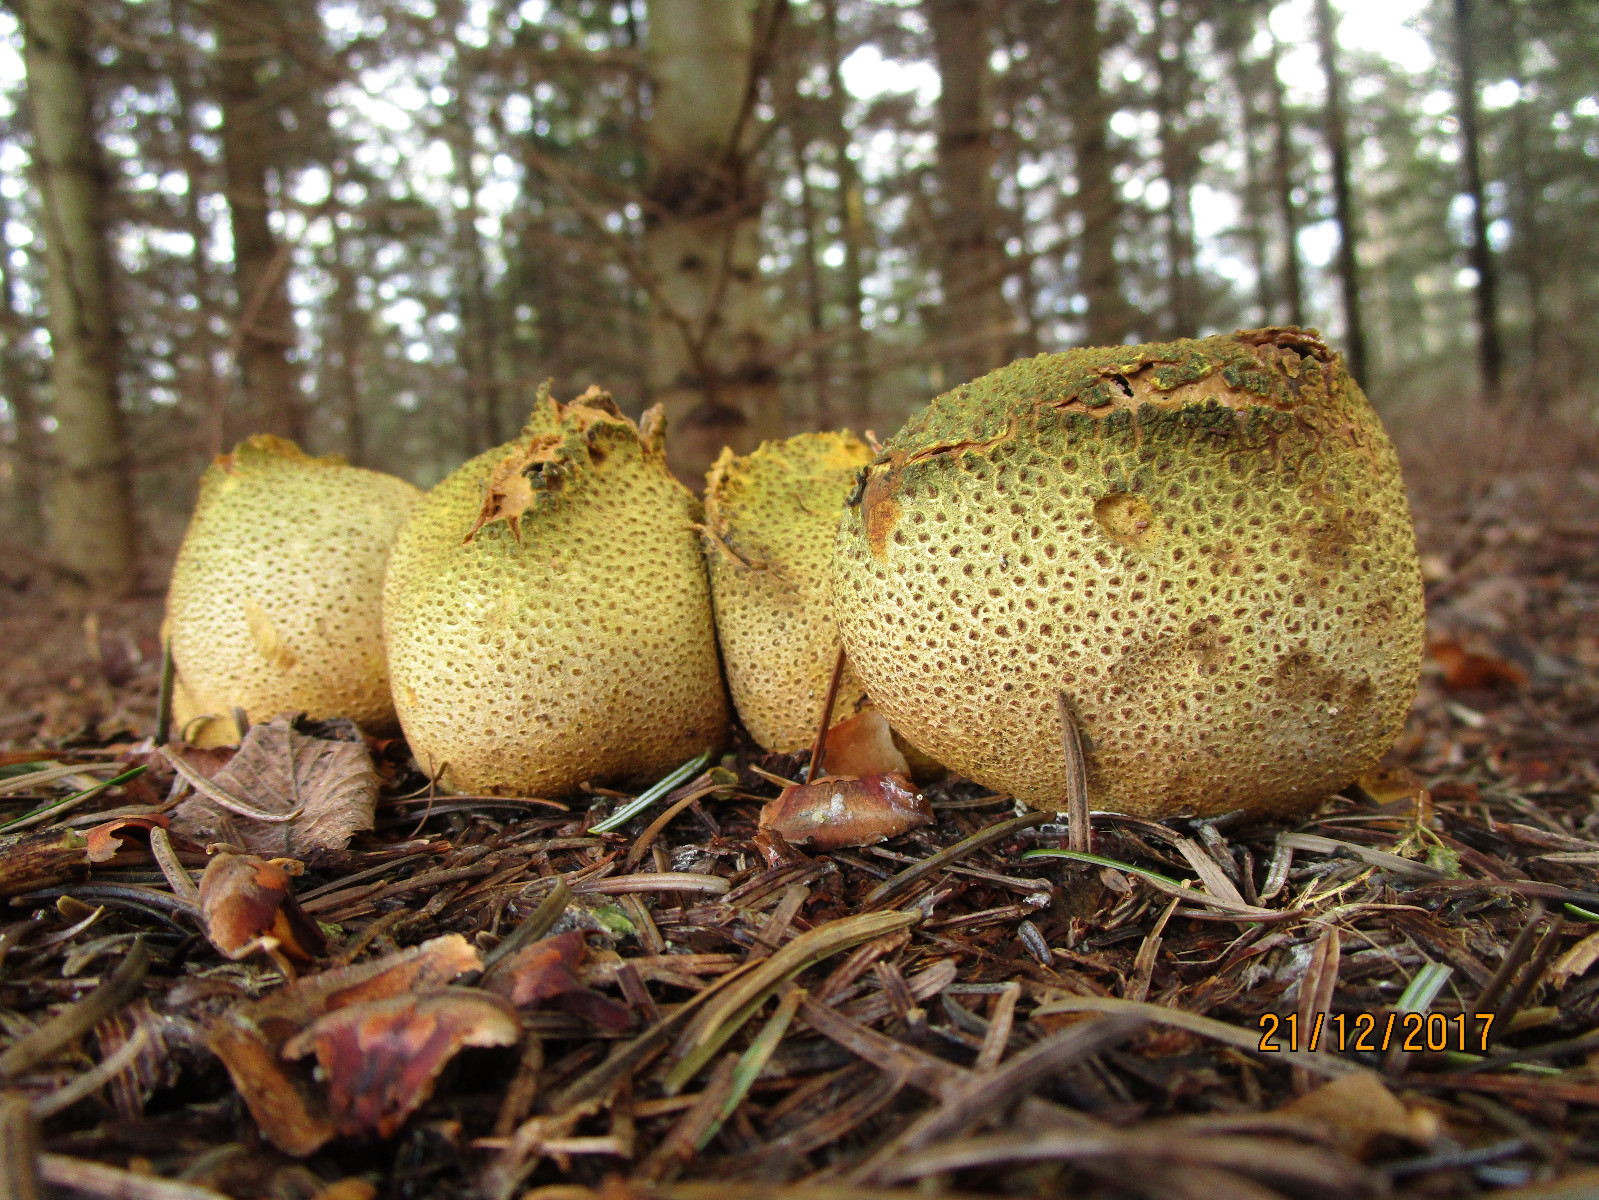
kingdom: Fungi
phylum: Basidiomycota
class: Agaricomycetes
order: Boletales
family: Sclerodermataceae
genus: Scleroderma
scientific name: Scleroderma citrinum
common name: almindelig bruskbold
